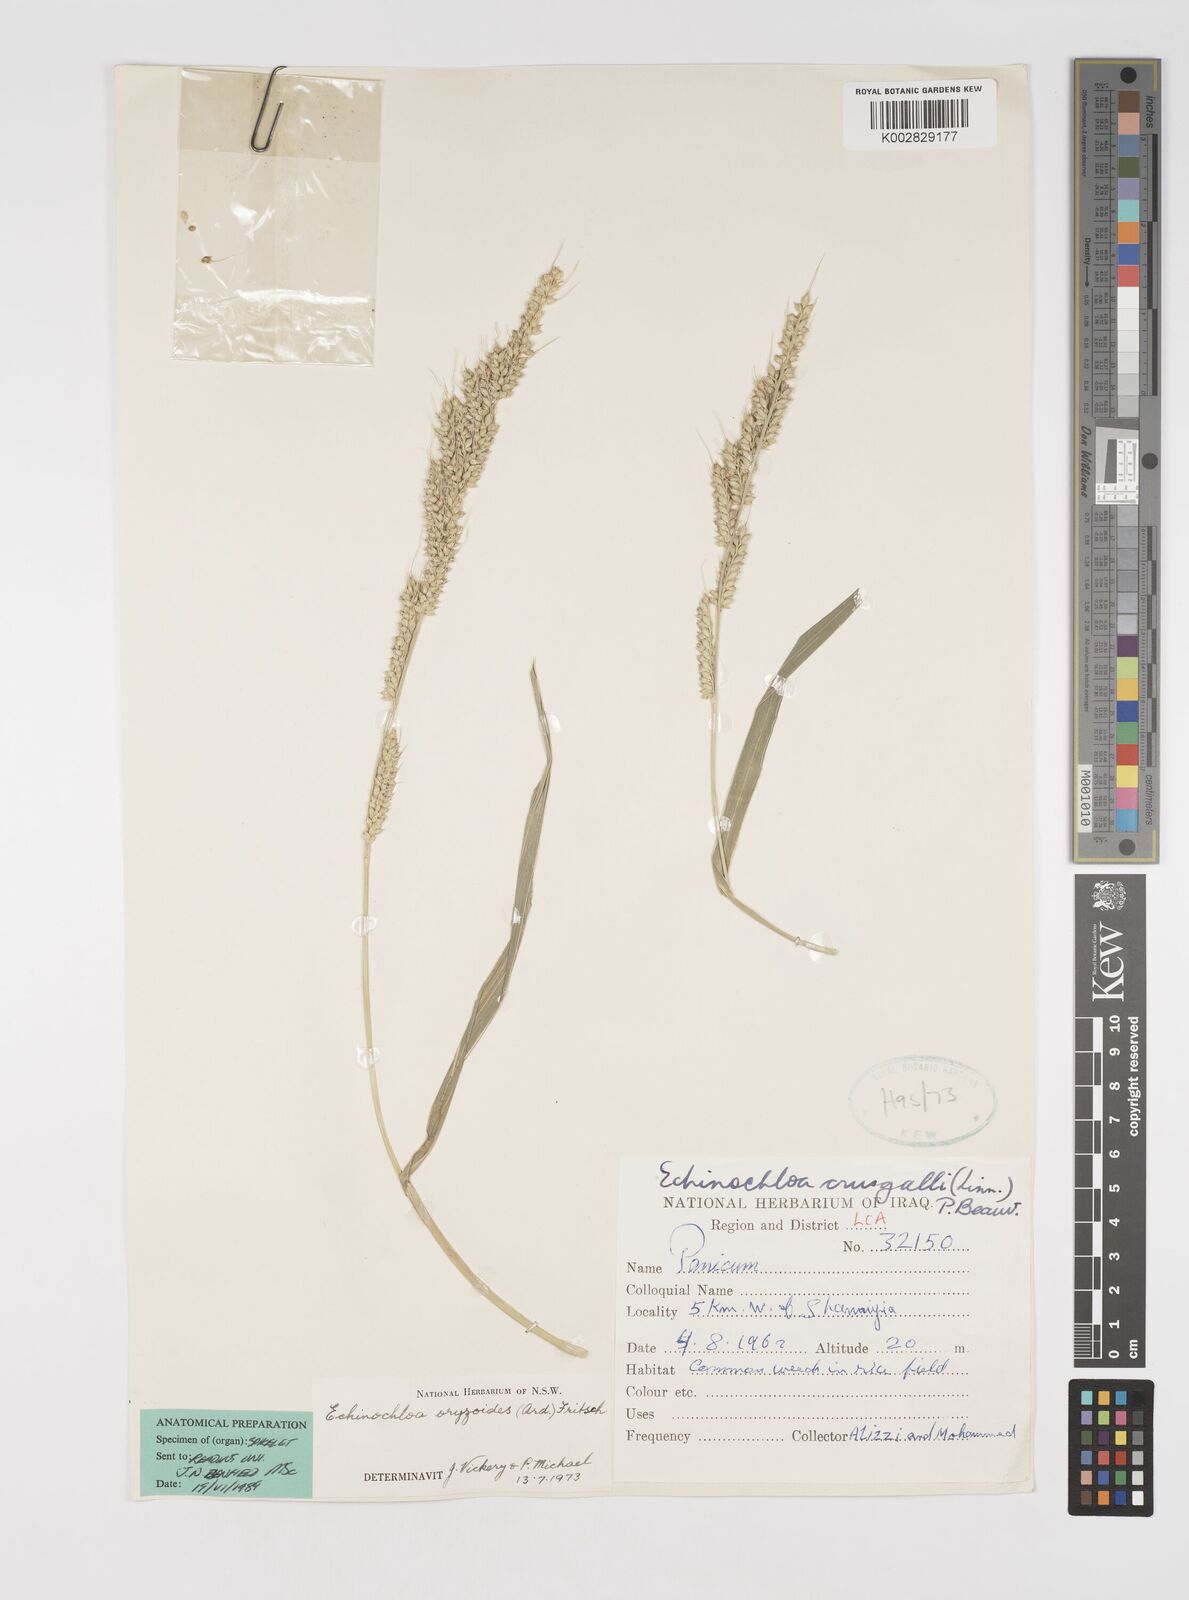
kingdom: Plantae
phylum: Tracheophyta
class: Liliopsida
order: Poales
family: Poaceae
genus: Echinochloa
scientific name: Echinochloa crus-galli
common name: Cockspur
